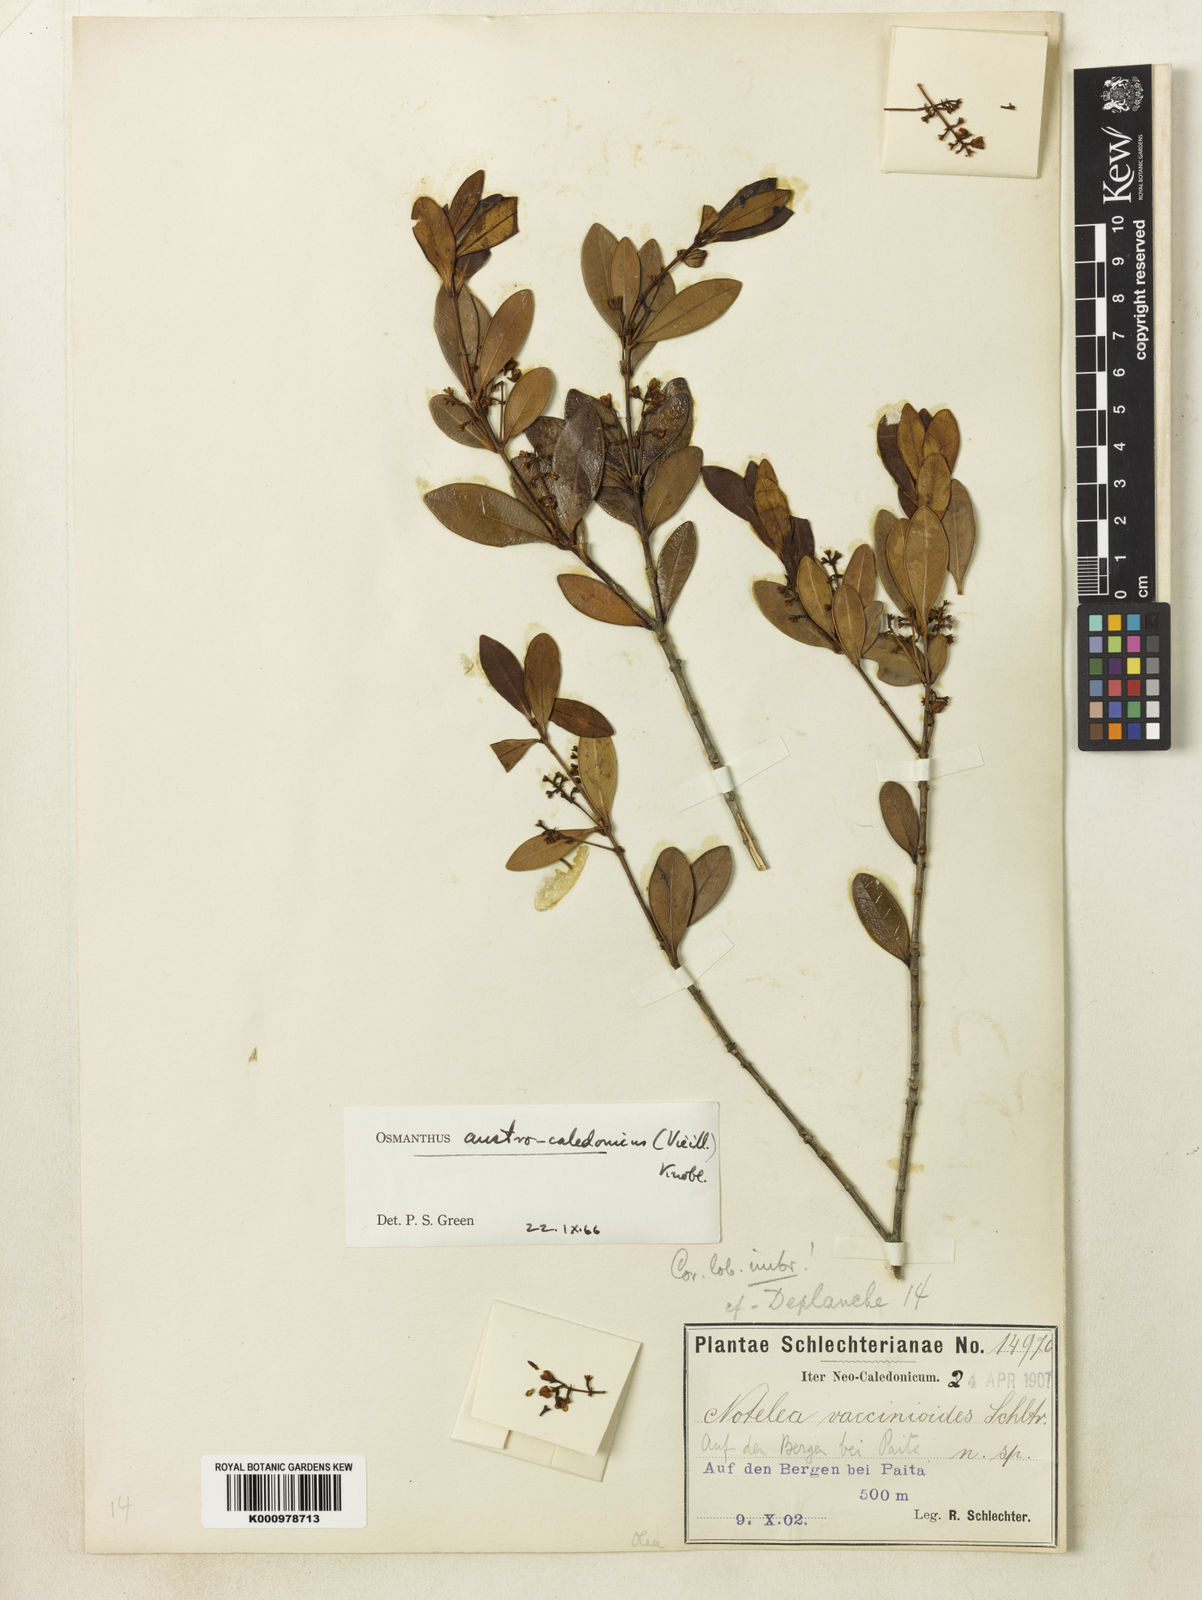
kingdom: Plantae
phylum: Tracheophyta
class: Magnoliopsida
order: Lamiales
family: Oleaceae
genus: Osmanthus
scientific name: Osmanthus austrocaledonicus
